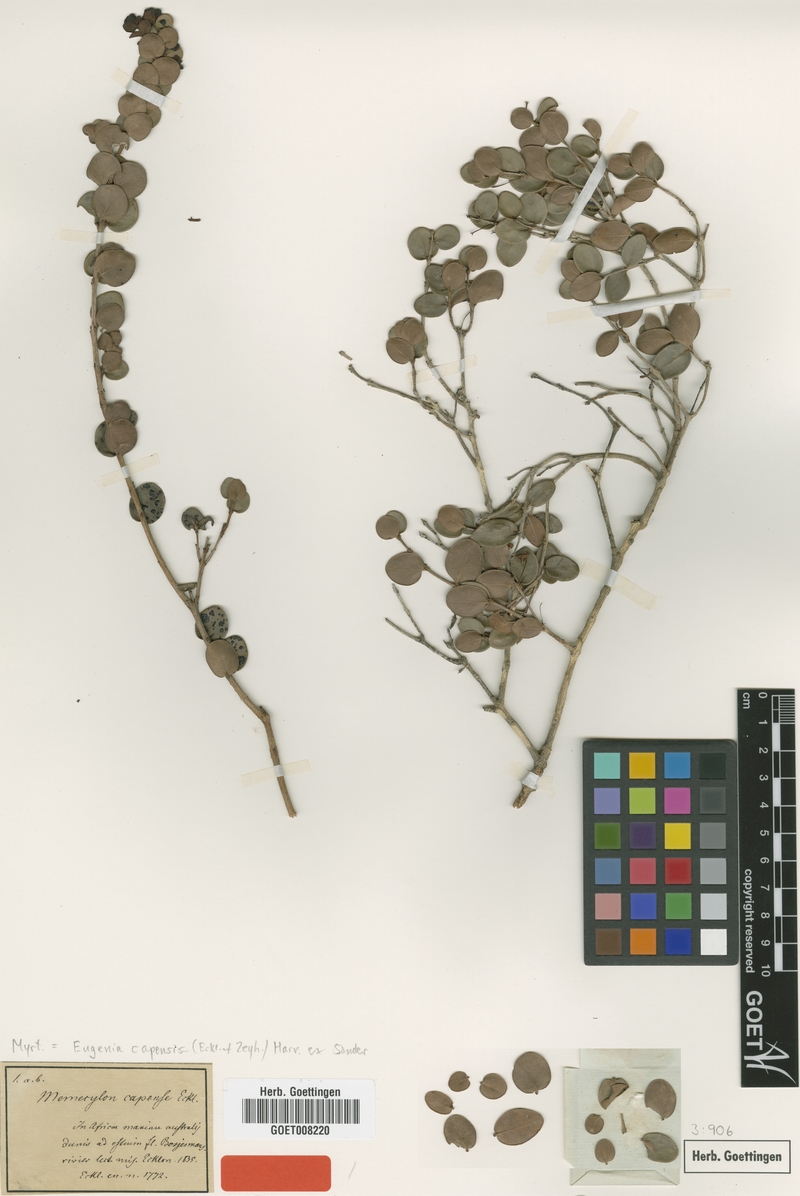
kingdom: Plantae
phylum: Tracheophyta
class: Magnoliopsida
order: Myrtales
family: Myrtaceae
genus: Eugenia
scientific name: Eugenia capensis
